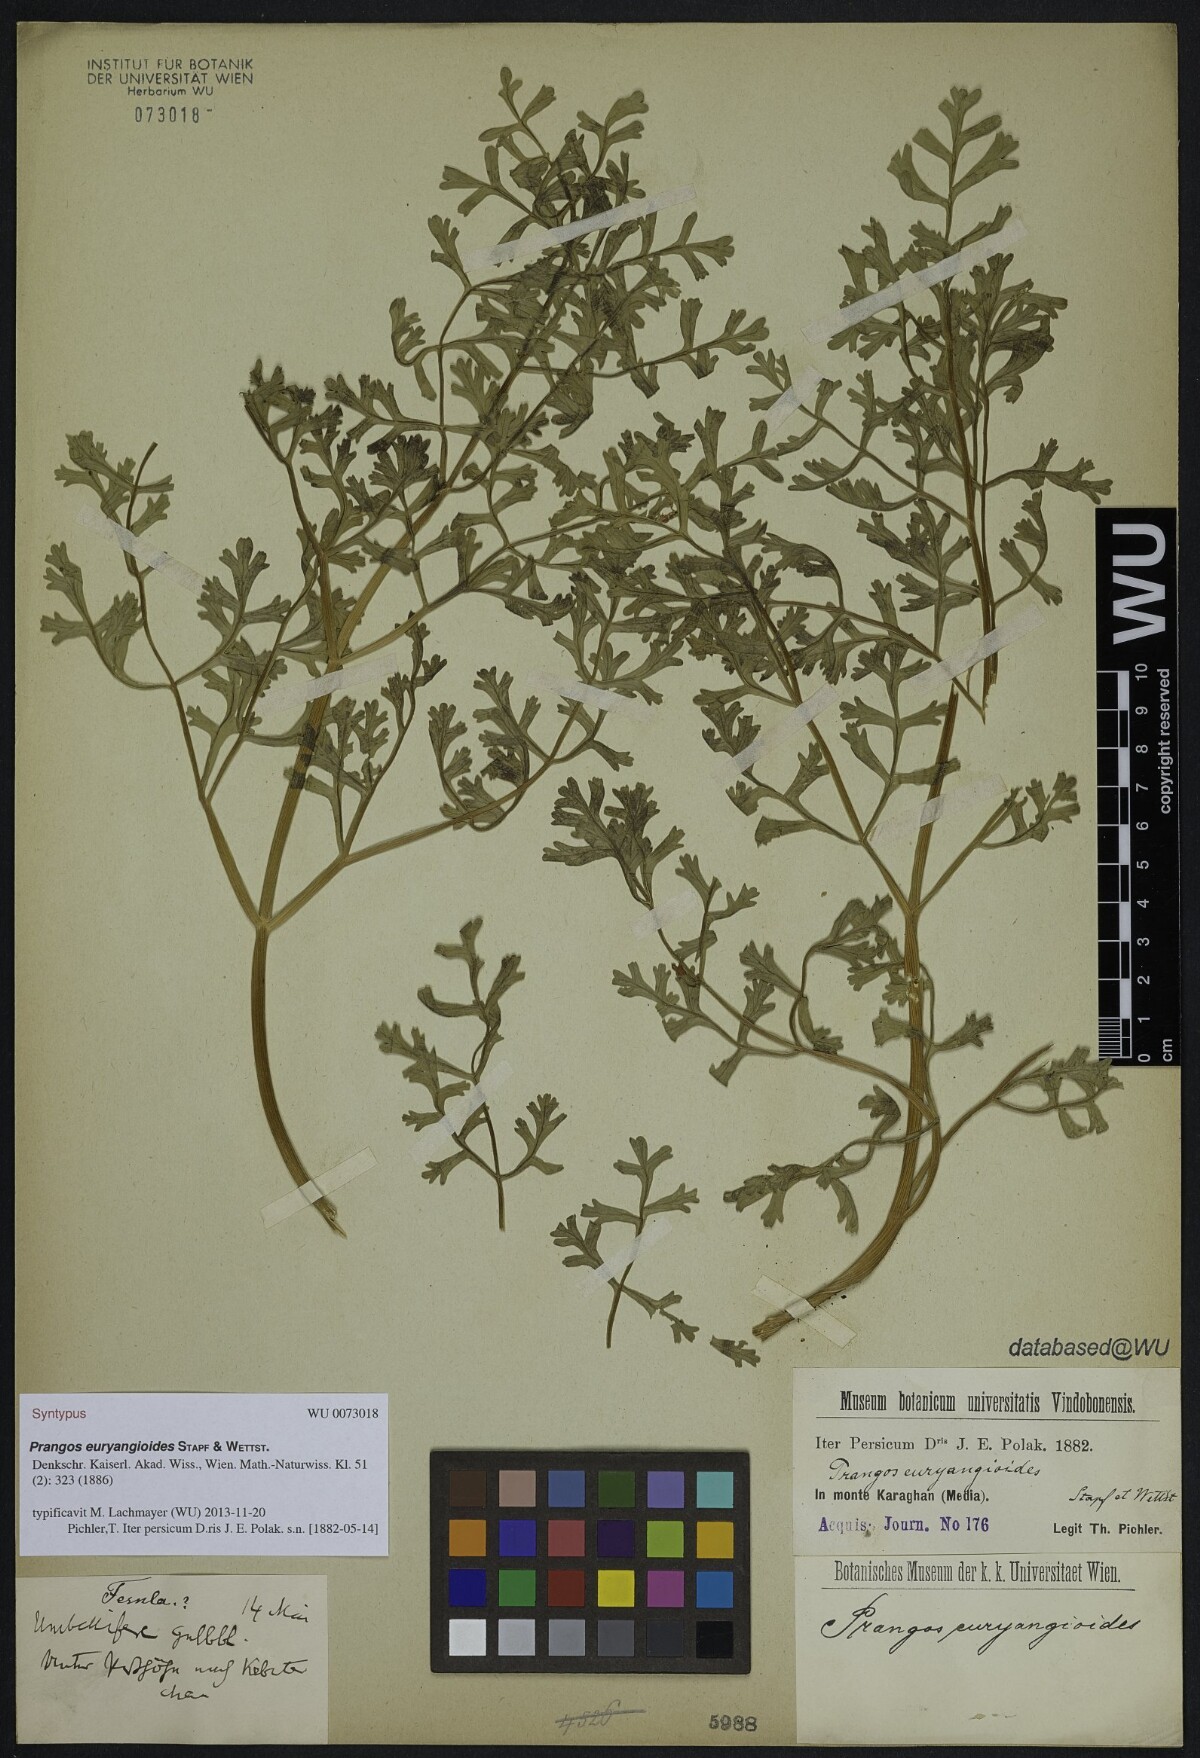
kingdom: Plantae
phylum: Tracheophyta
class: Magnoliopsida
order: Apiales
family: Apiaceae
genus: Ferula
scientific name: Ferula persica
